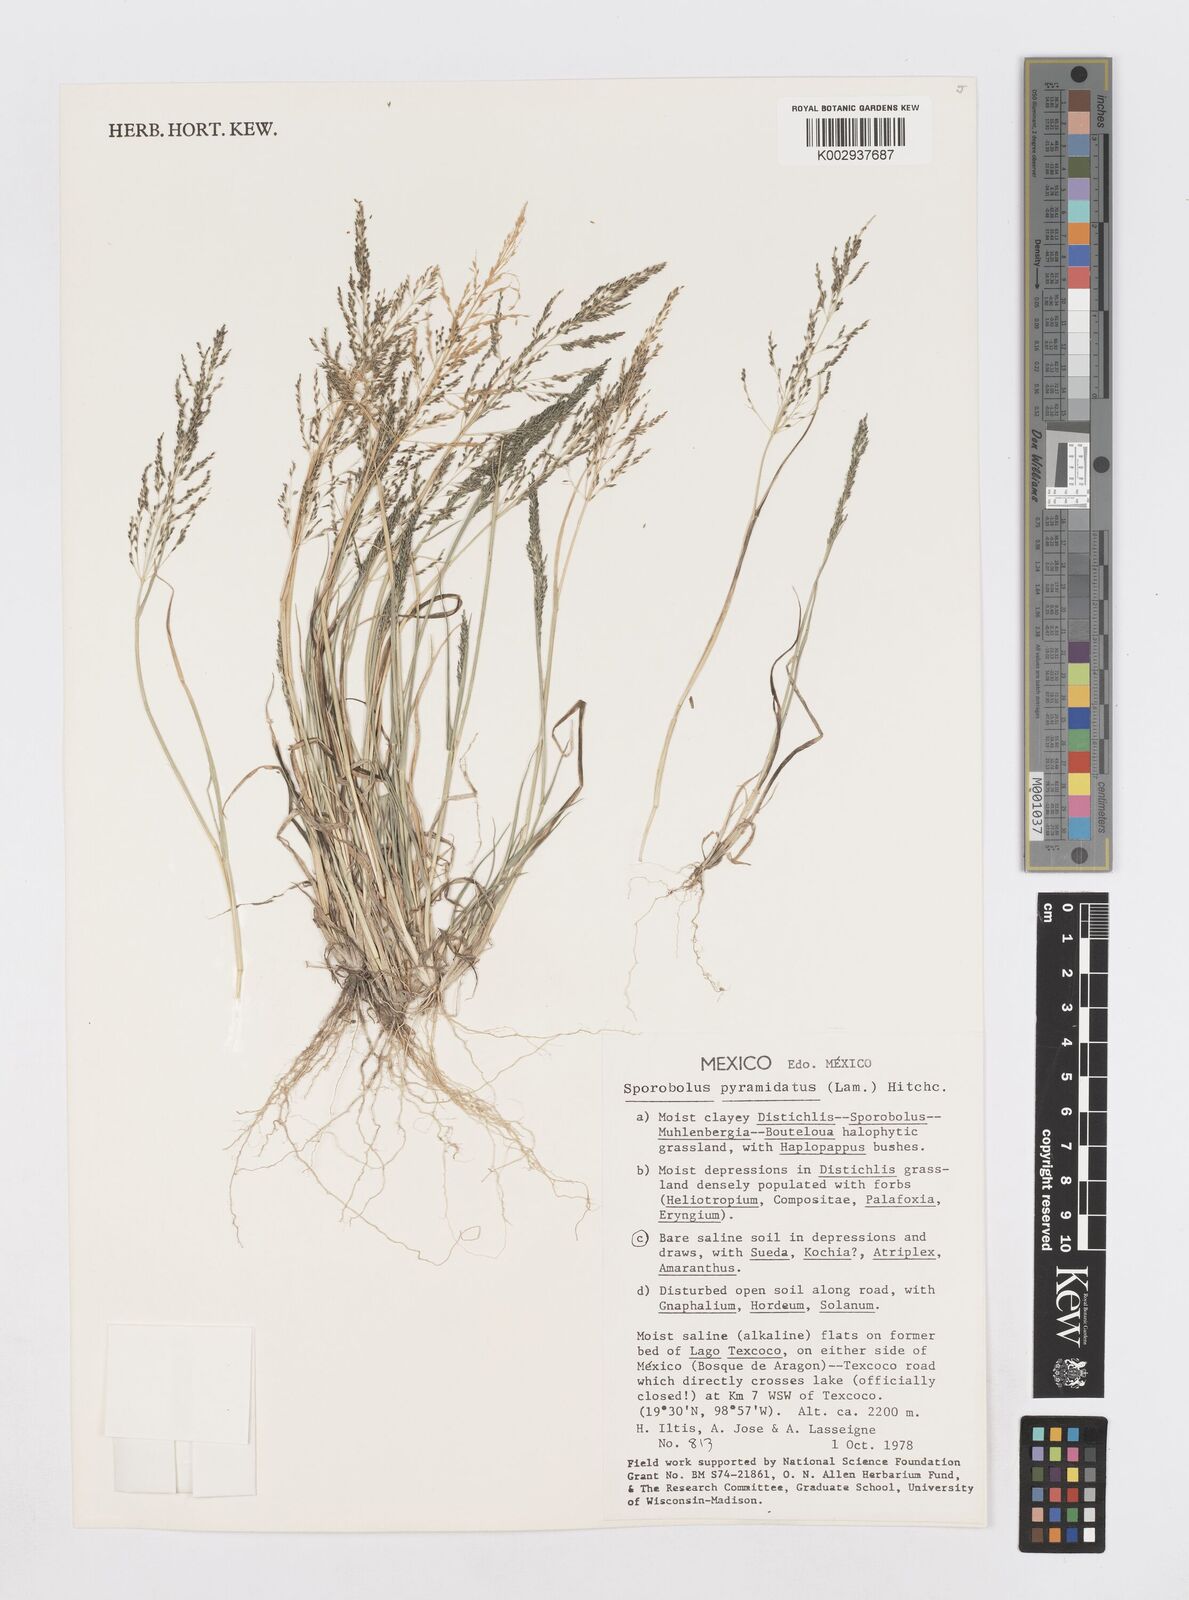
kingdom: Plantae
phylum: Tracheophyta
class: Liliopsida
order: Poales
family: Poaceae
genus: Sporobolus
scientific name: Sporobolus pyramidatus
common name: Whorled dropseed
